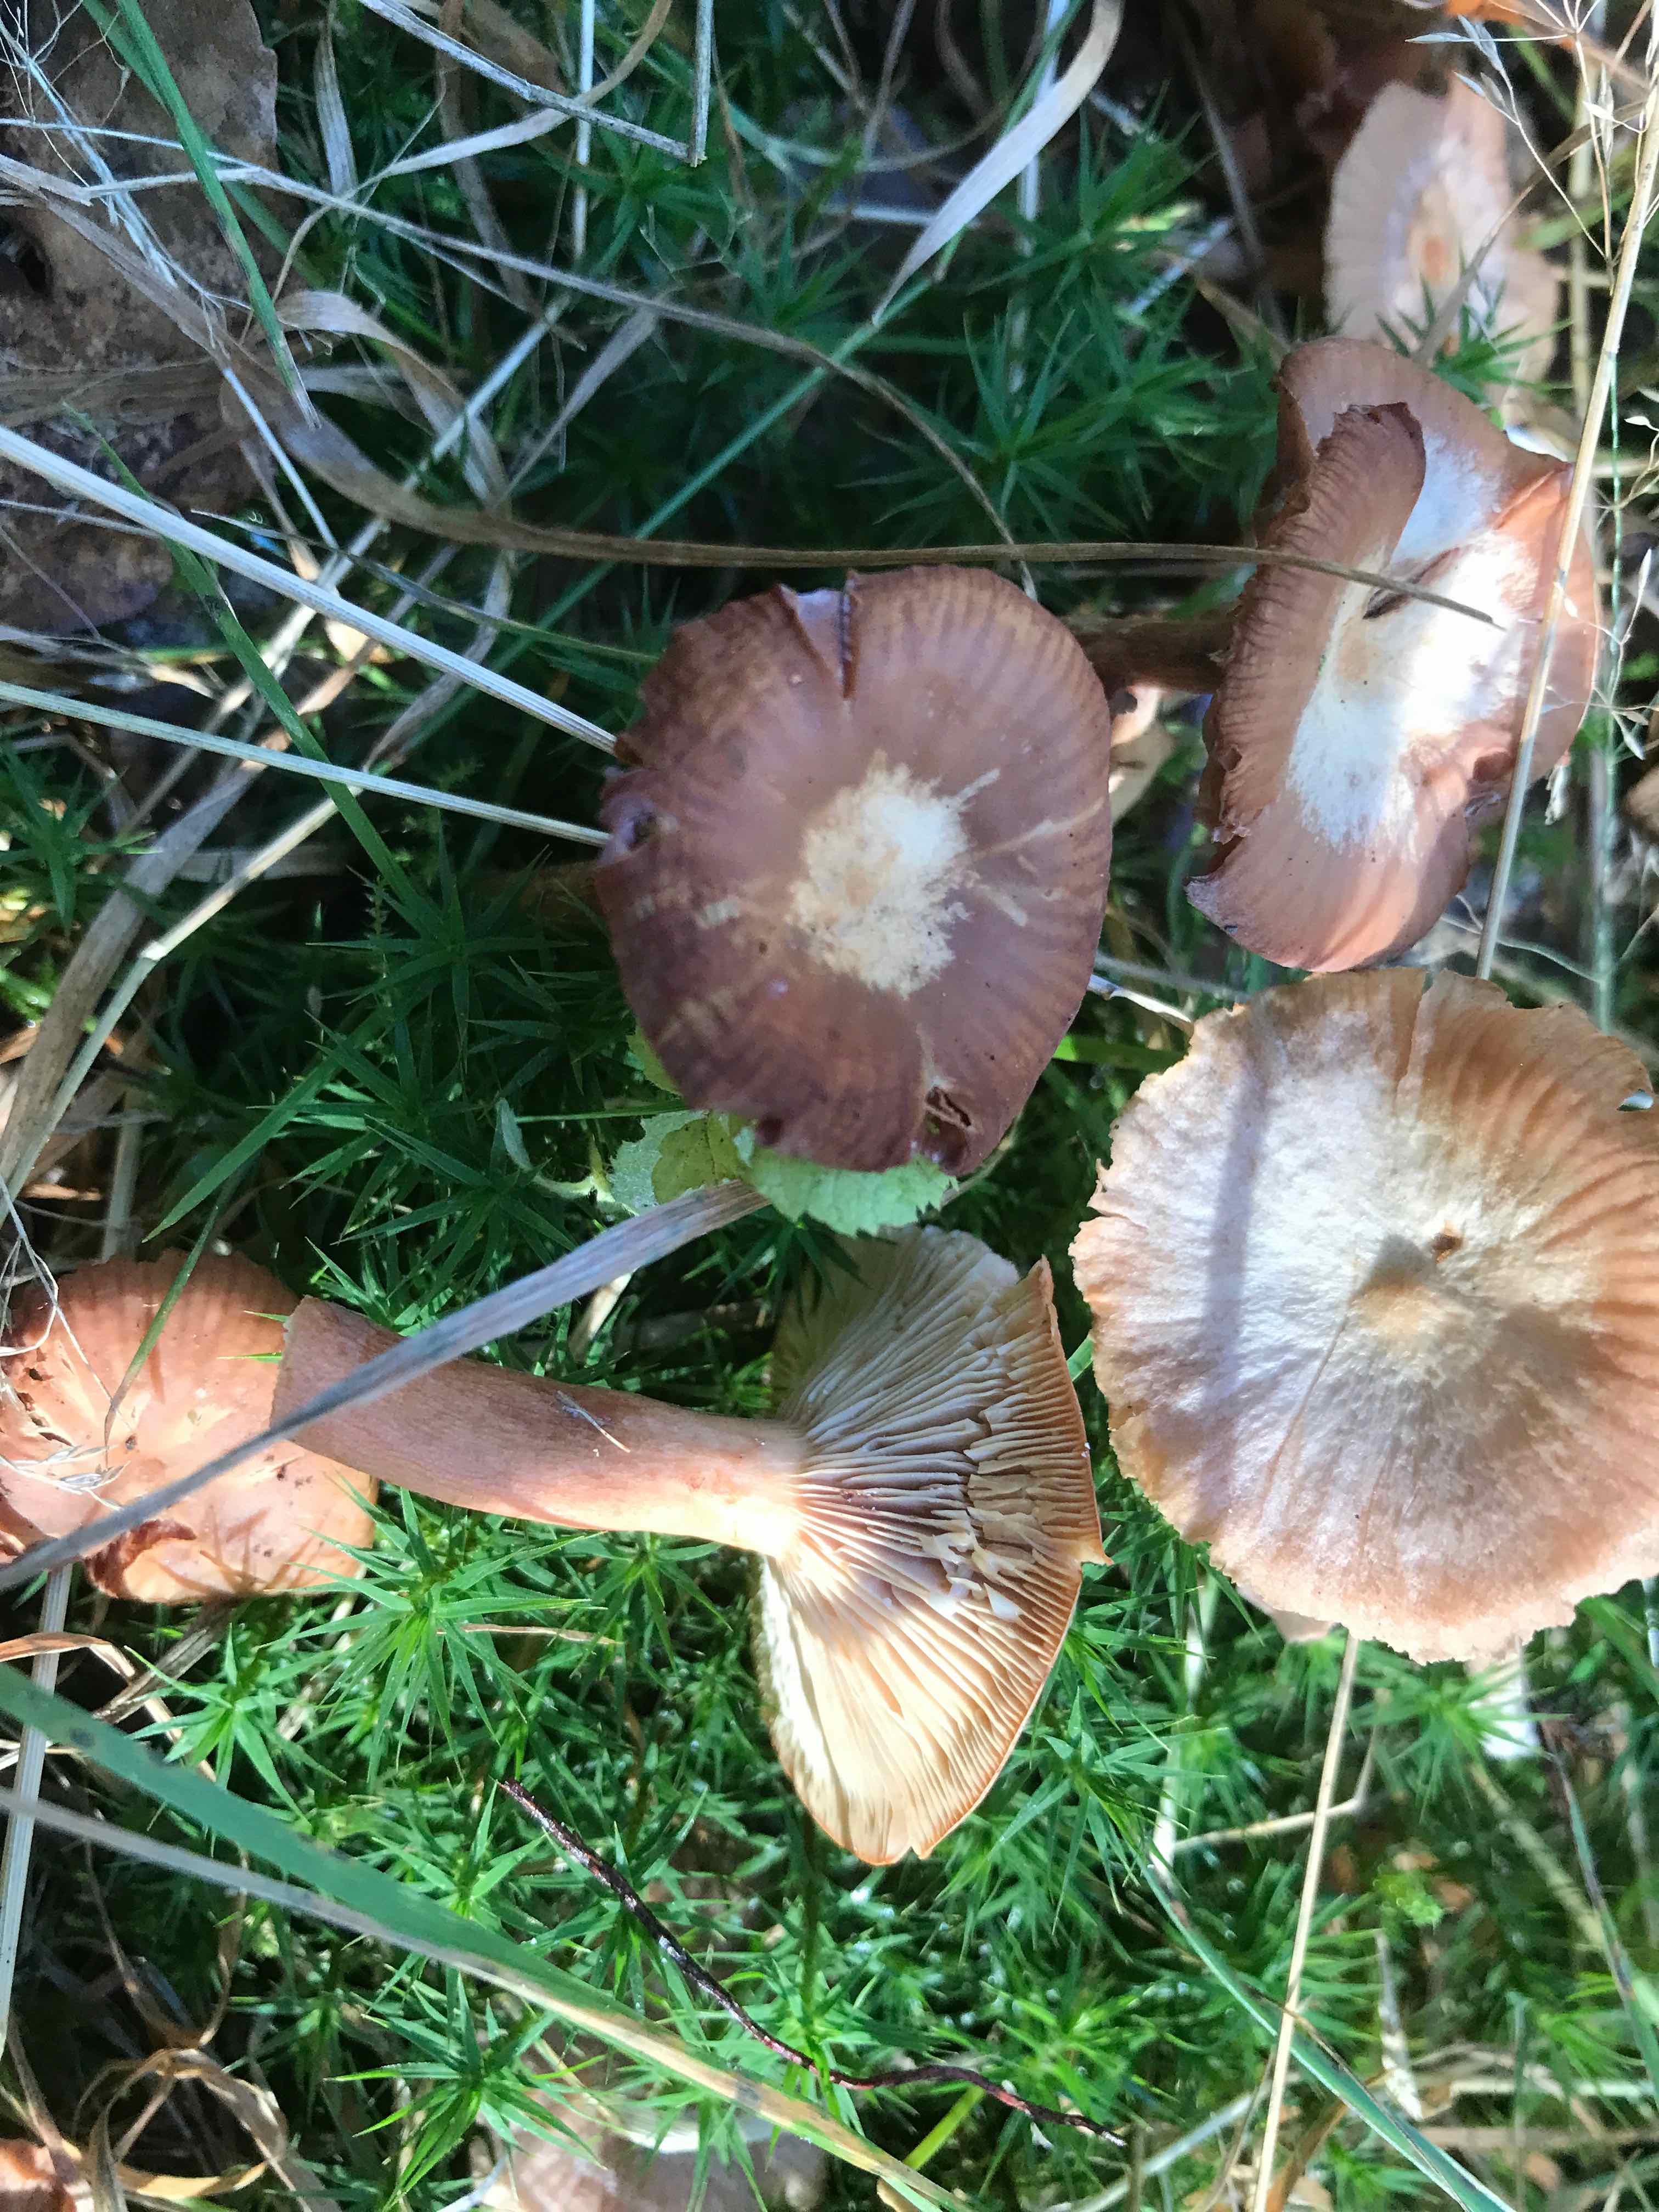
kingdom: Fungi
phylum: Basidiomycota
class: Agaricomycetes
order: Russulales
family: Russulaceae
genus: Lactarius
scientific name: Lactarius
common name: mælkehat
